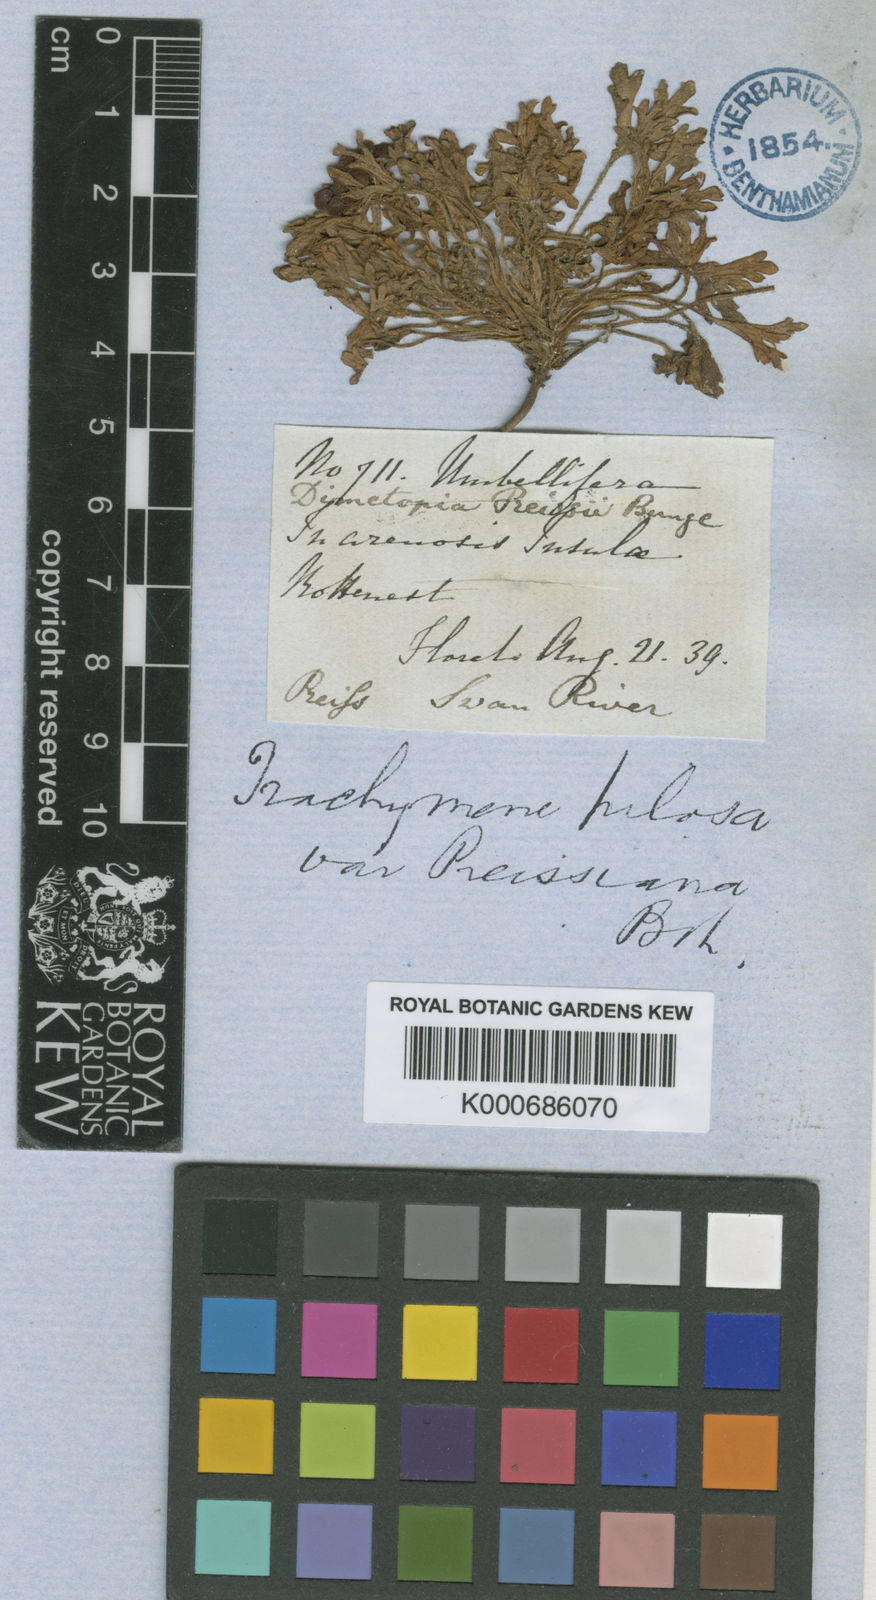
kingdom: Plantae
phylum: Tracheophyta
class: Magnoliopsida
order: Apiales
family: Araliaceae
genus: Trachymene
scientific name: Trachymene pilosa
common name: Dwarf trachymene
